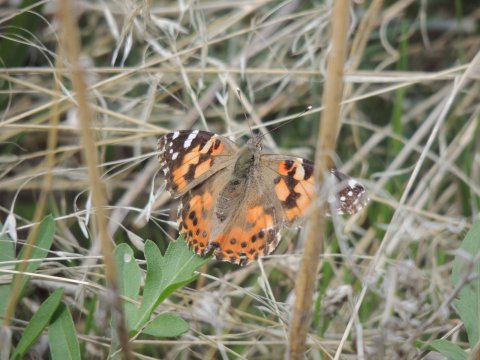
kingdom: Animalia
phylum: Arthropoda
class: Insecta
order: Lepidoptera
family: Nymphalidae
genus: Vanessa
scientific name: Vanessa cardui
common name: Painted Lady
